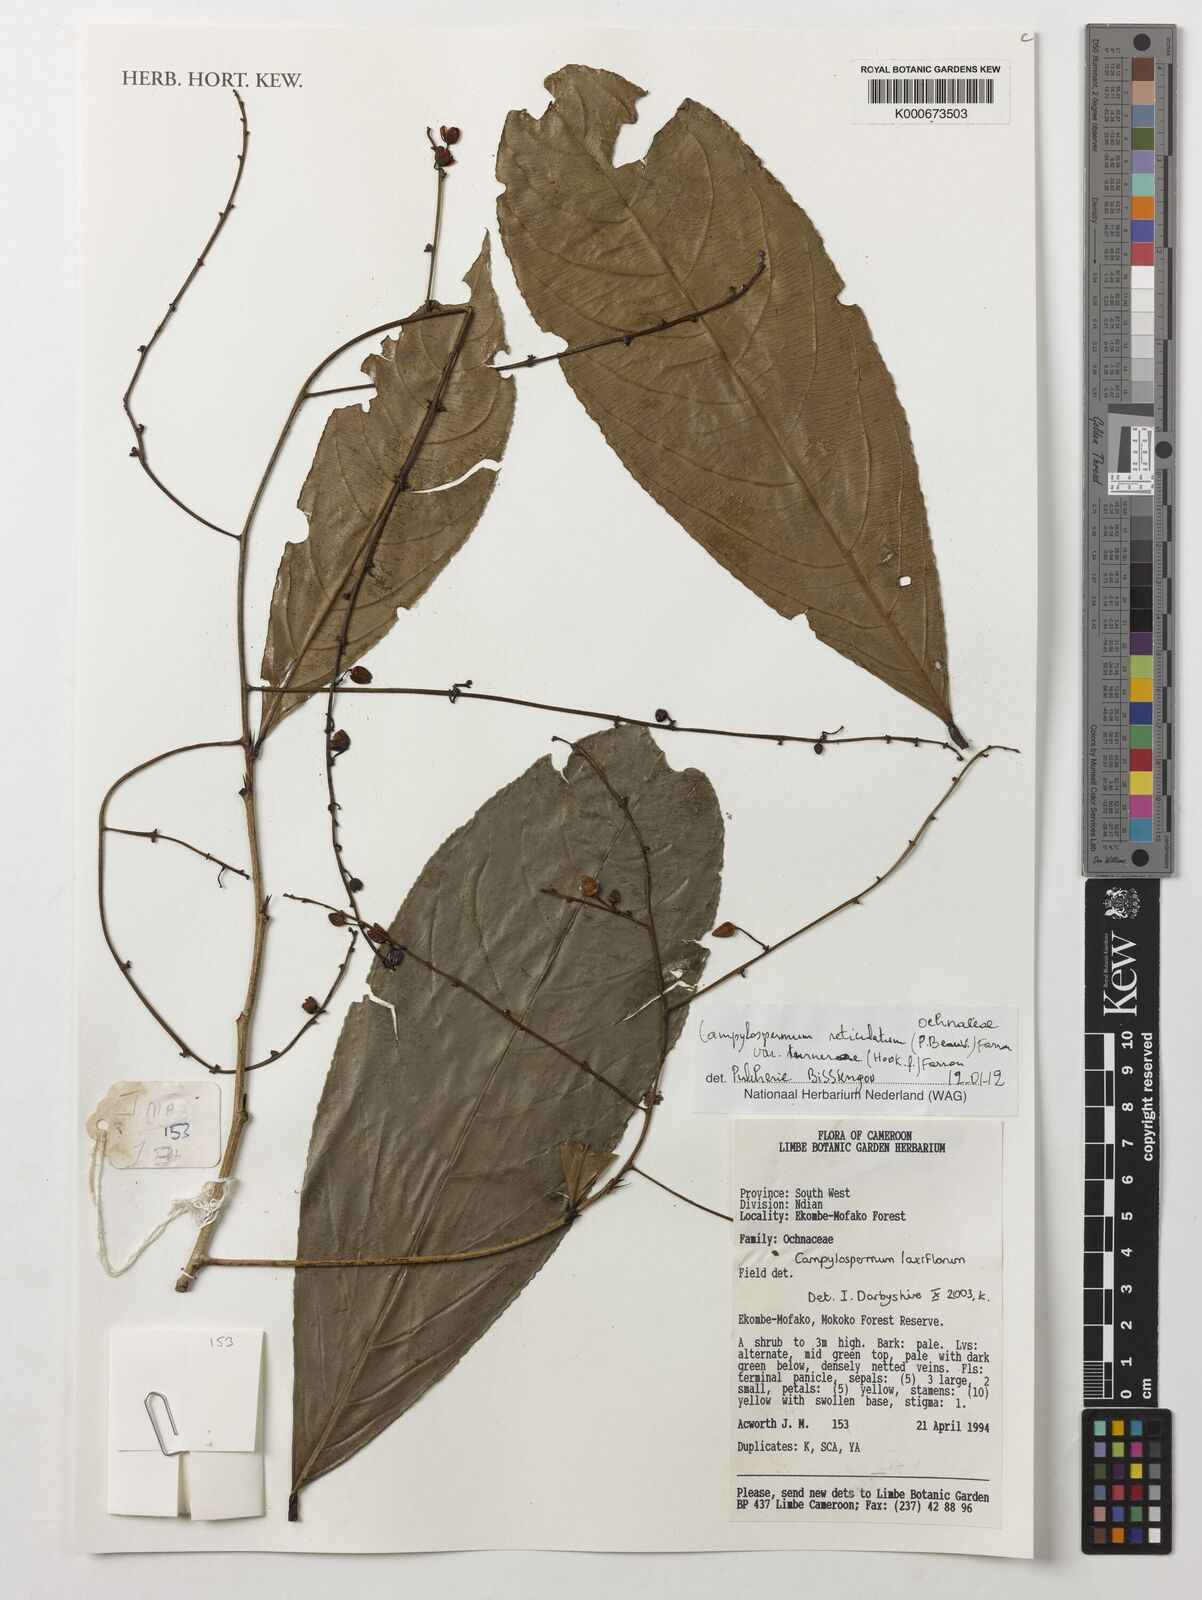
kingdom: Plantae
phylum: Tracheophyta
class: Magnoliopsida
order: Malpighiales
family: Ochnaceae
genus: Campylospermum
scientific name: Campylospermum reticulatum
